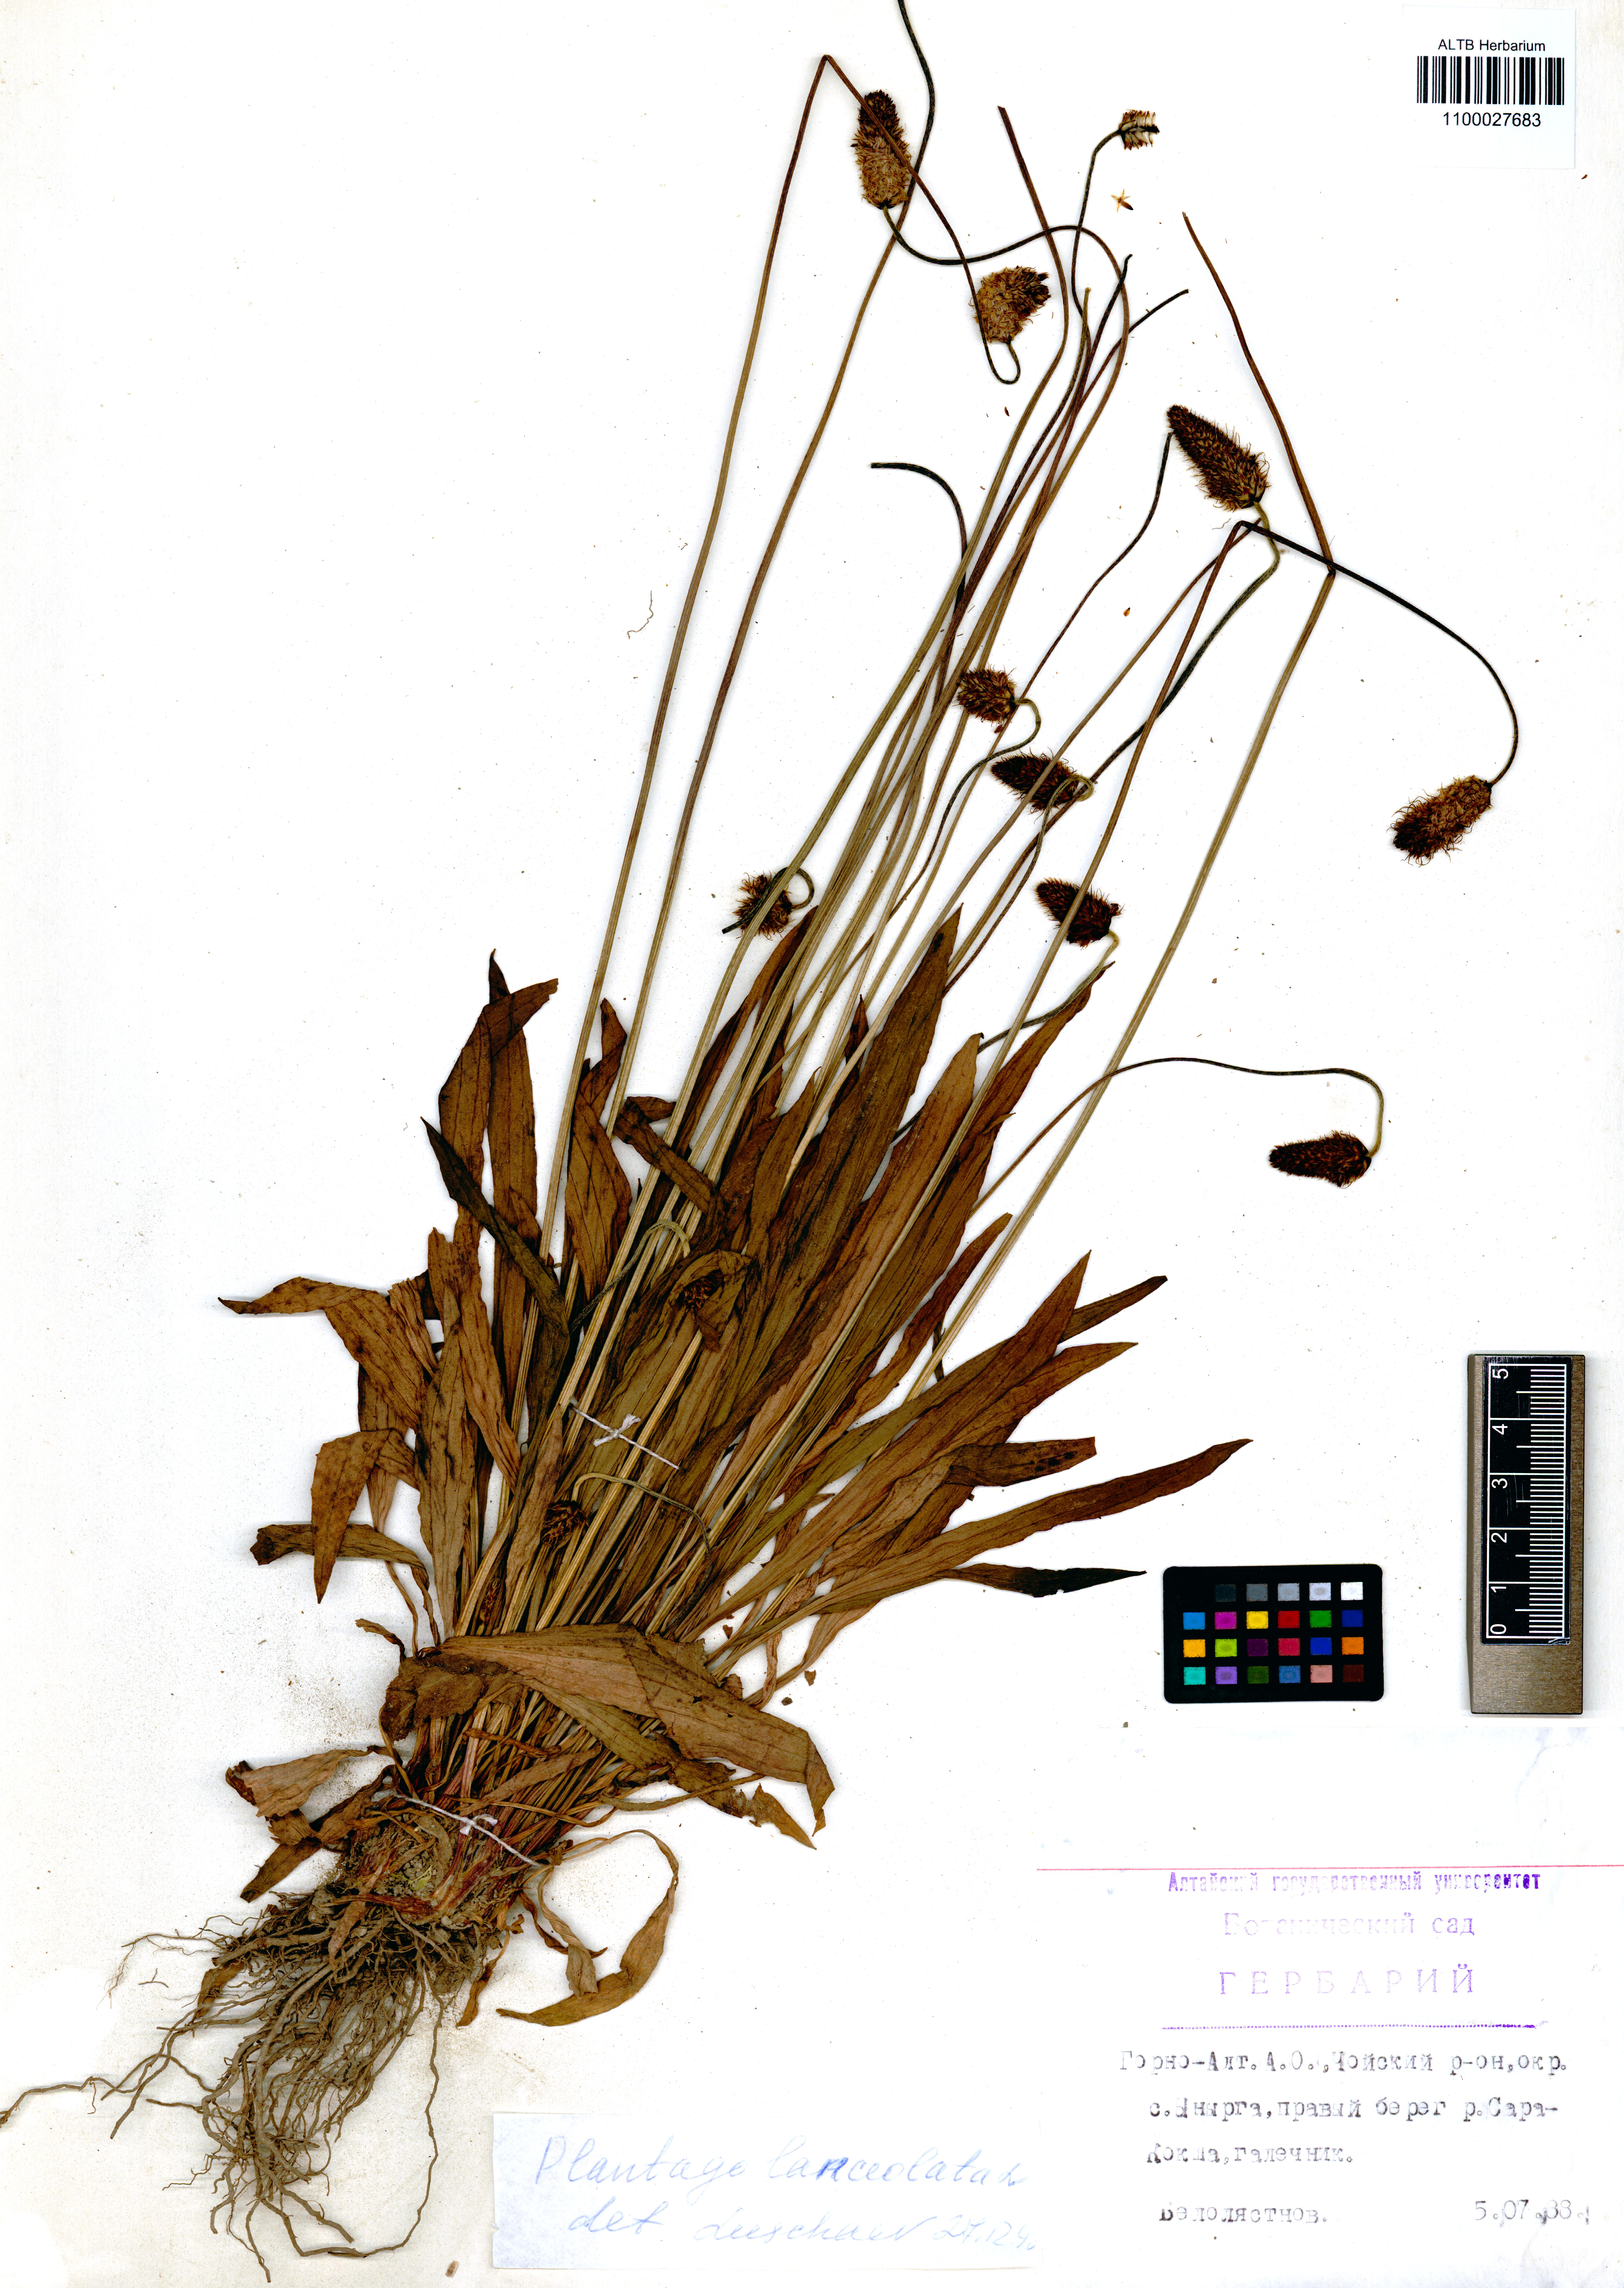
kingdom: Plantae
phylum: Tracheophyta
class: Magnoliopsida
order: Lamiales
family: Plantaginaceae
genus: Plantago
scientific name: Plantago lanceolata
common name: Ribwort plantain
